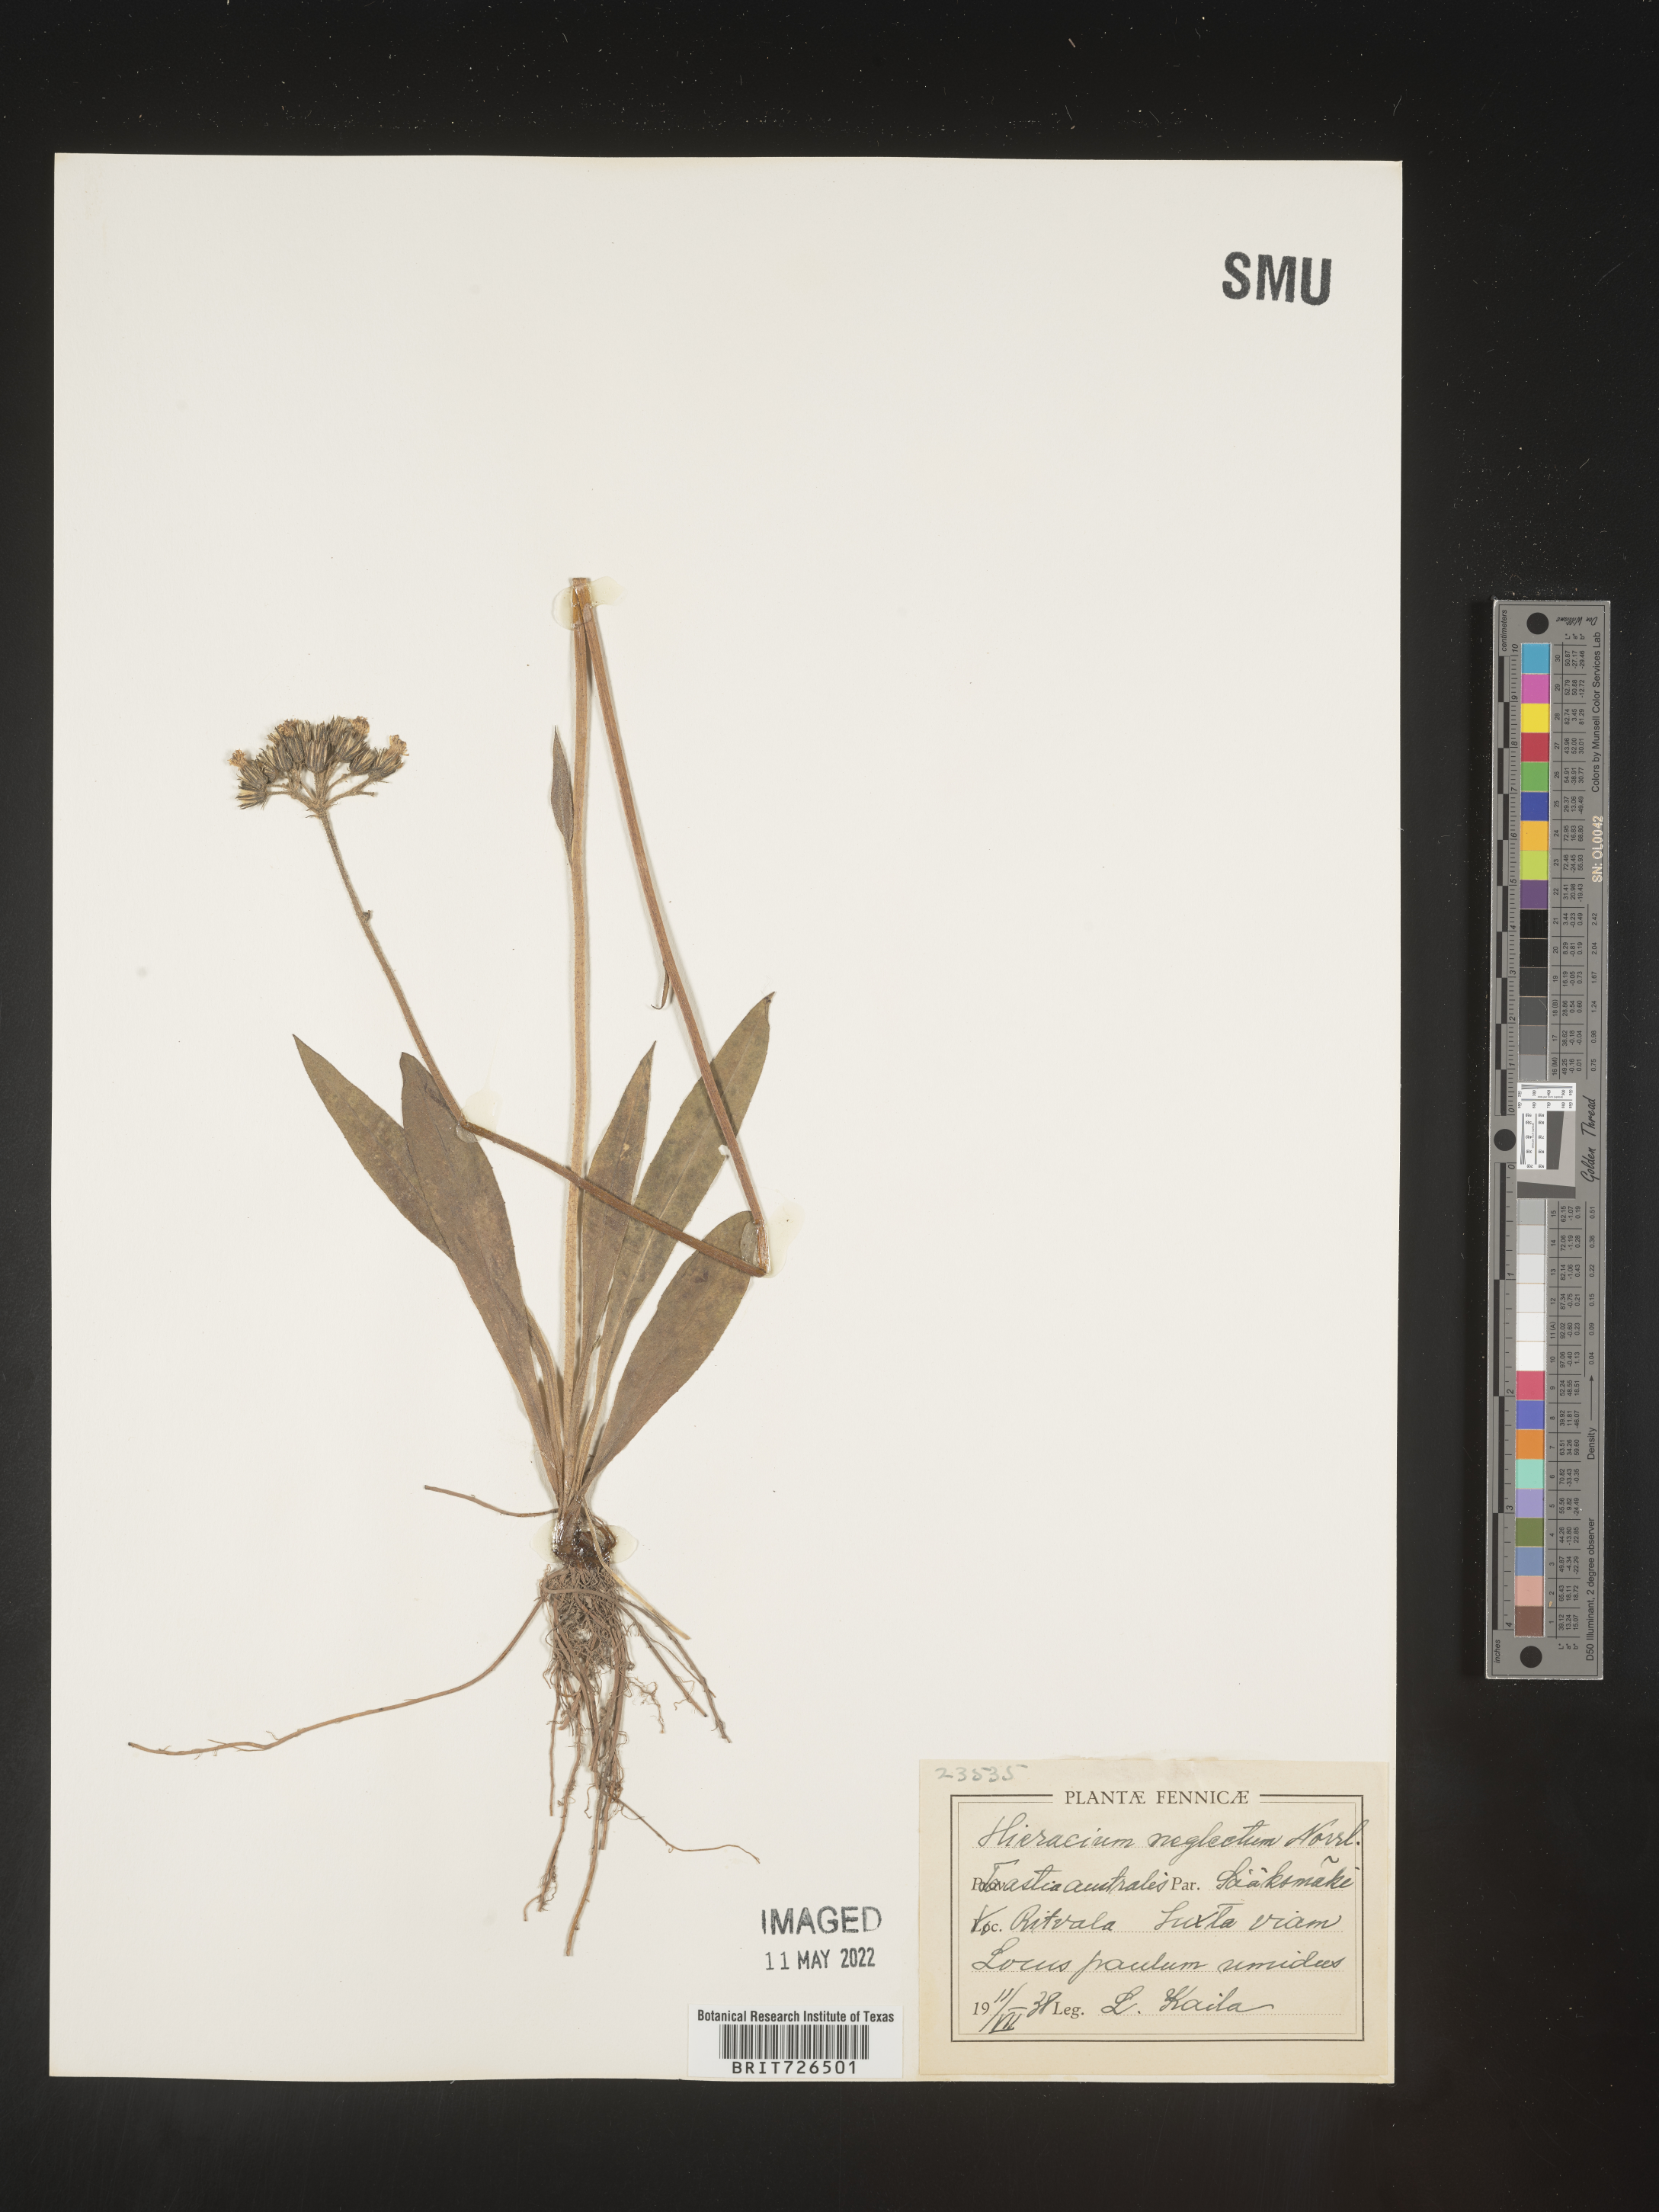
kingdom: Plantae
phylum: Tracheophyta
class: Magnoliopsida
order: Asterales
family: Asteraceae
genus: Hieracium
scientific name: Hieracium
